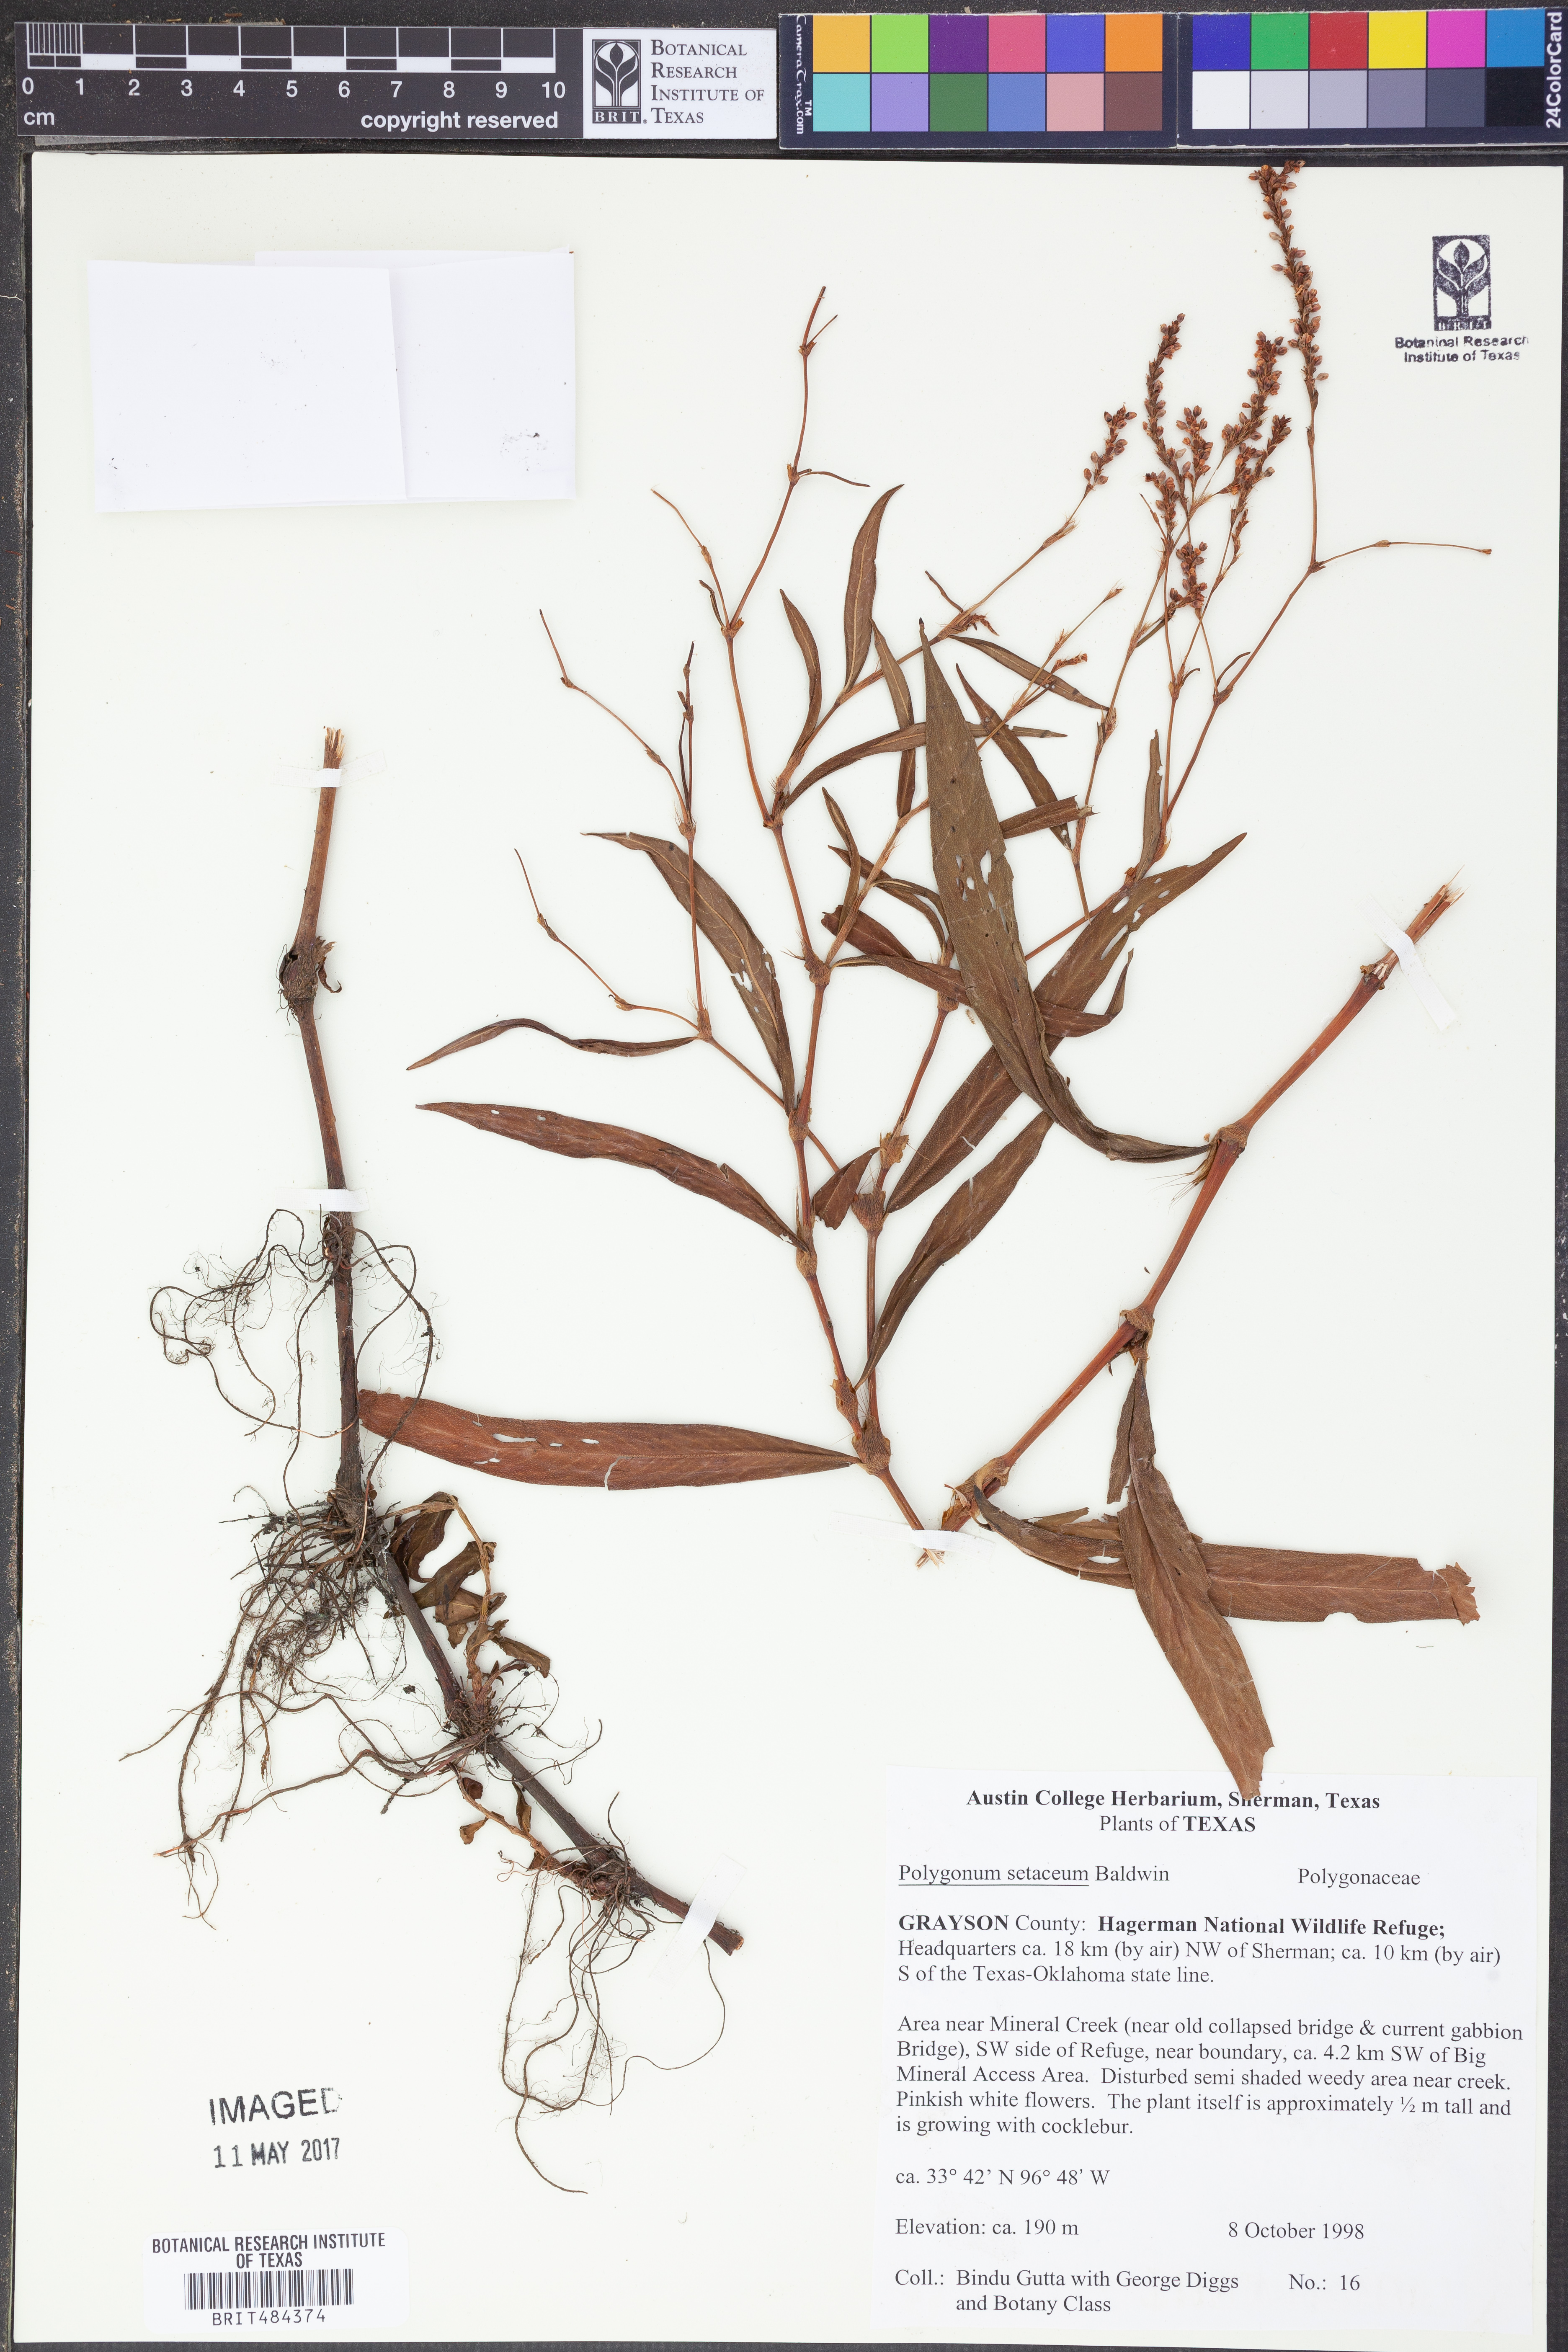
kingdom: Plantae
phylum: Tracheophyta
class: Magnoliopsida
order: Caryophyllales
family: Polygonaceae
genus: Persicaria
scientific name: Persicaria setacea
